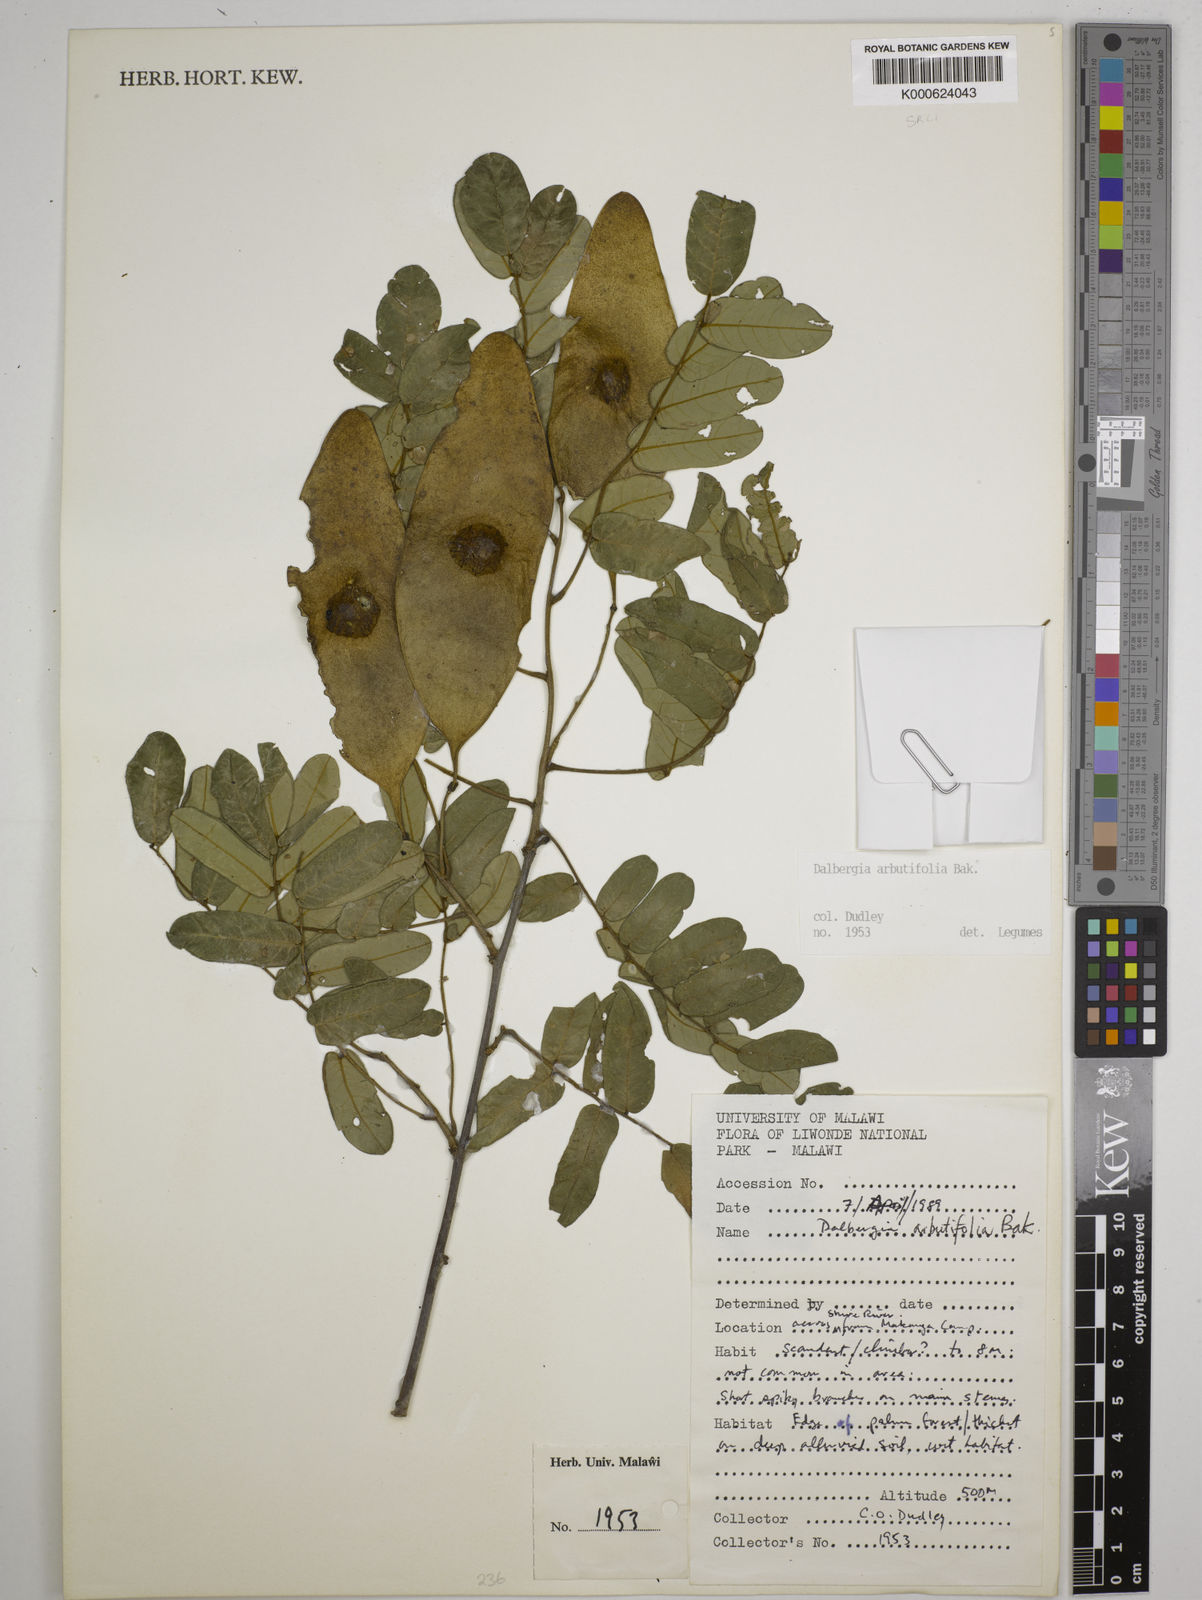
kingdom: Plantae
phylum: Tracheophyta
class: Magnoliopsida
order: Fabales
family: Fabaceae
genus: Dalbergia
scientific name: Dalbergia arbutifolia
